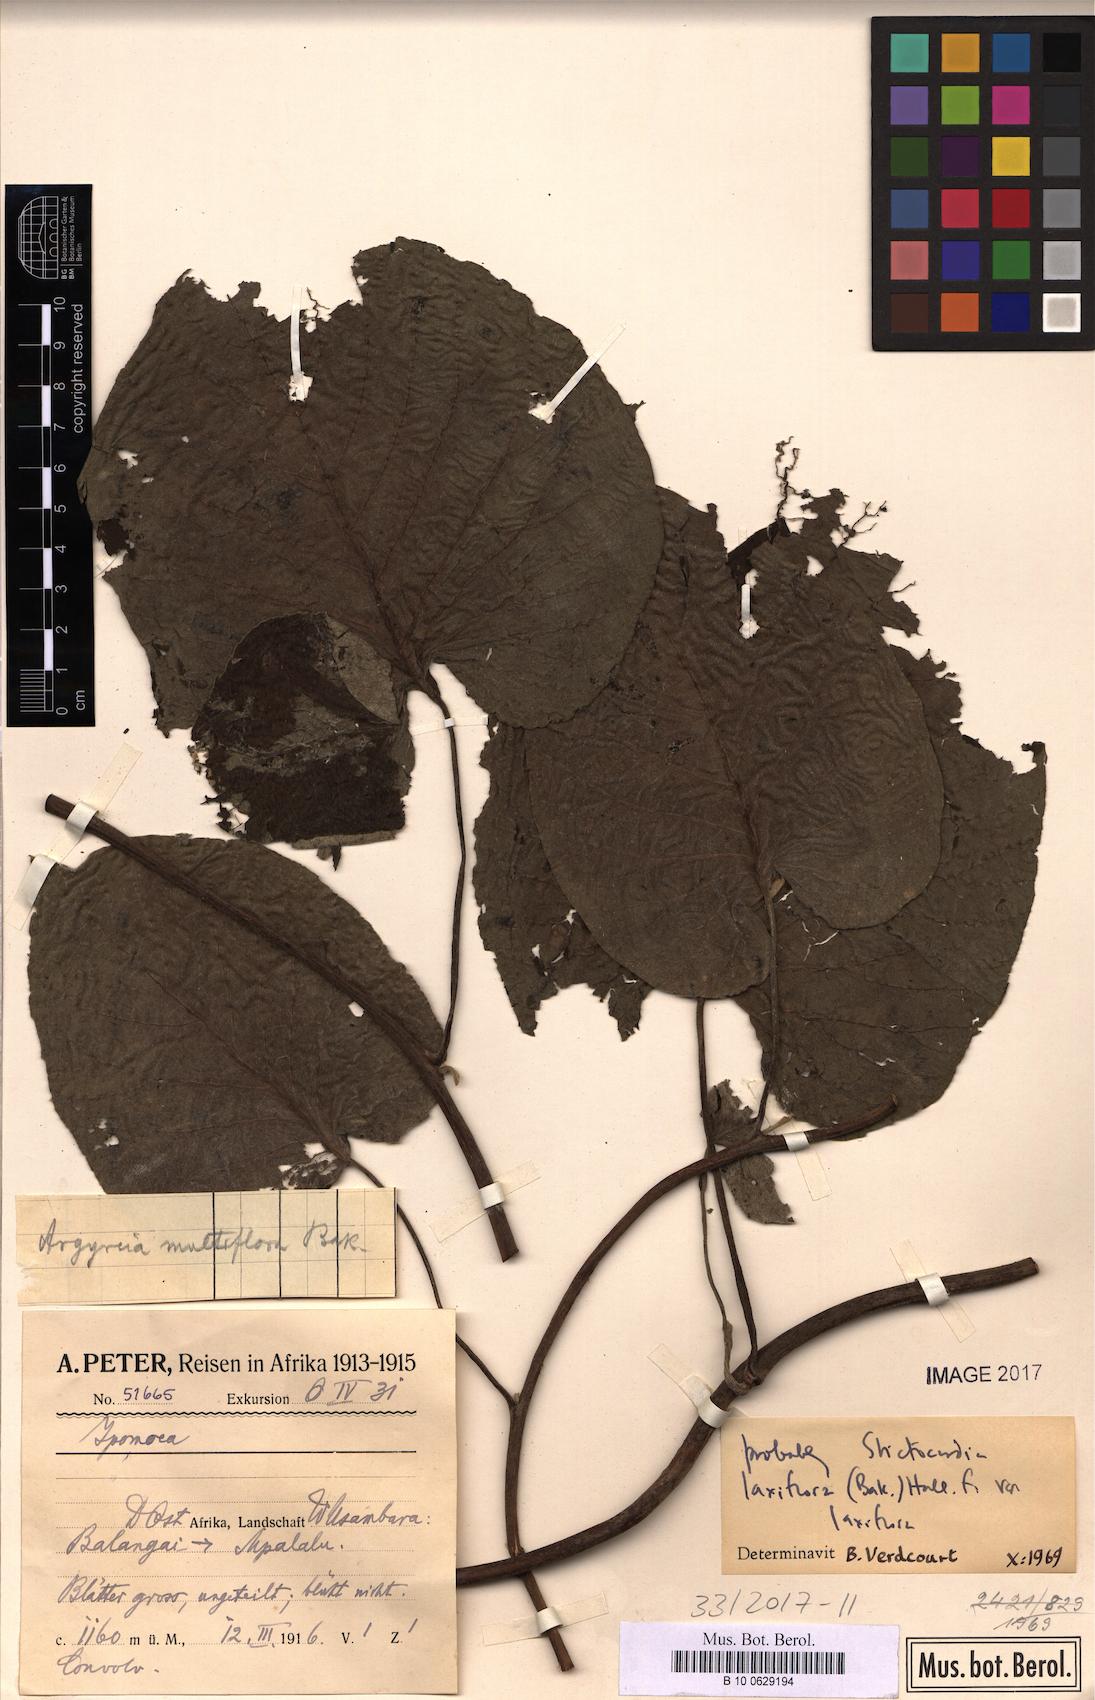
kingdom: Plantae
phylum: Tracheophyta
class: Magnoliopsida
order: Solanales
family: Convolvulaceae
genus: Stictocardia
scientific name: Stictocardia laxiflora
